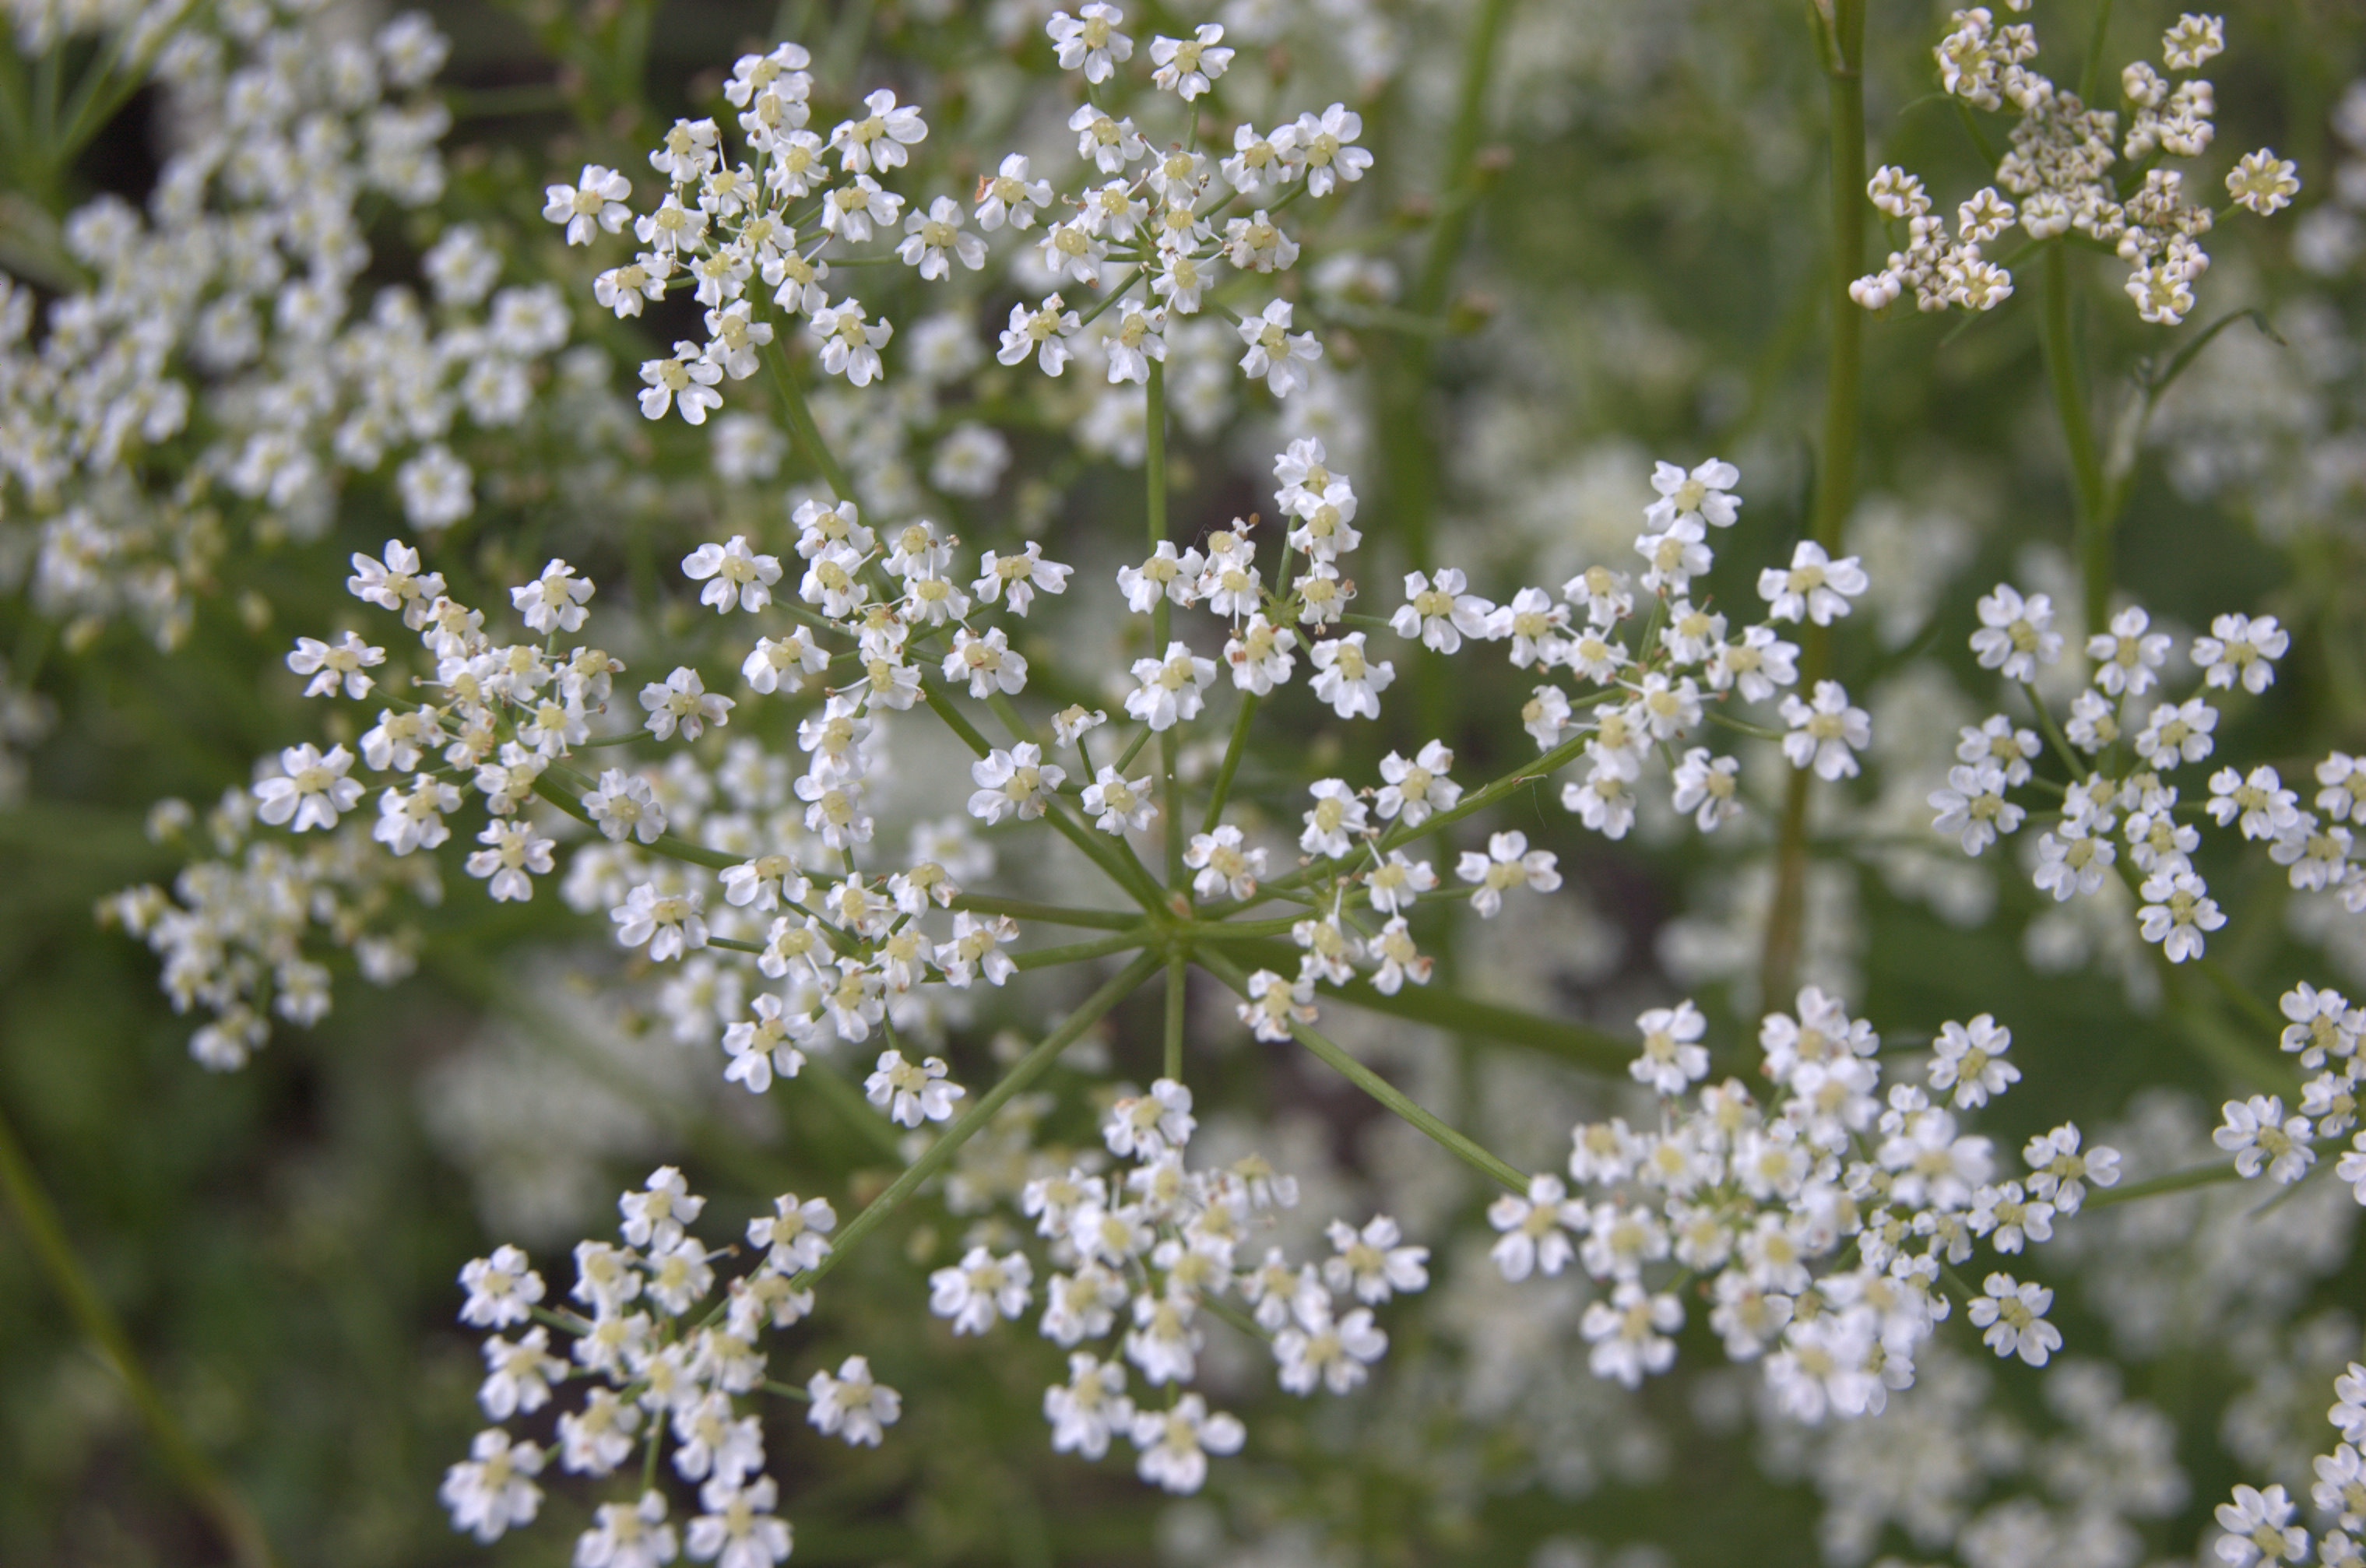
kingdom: Plantae
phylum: Tracheophyta
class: Magnoliopsida
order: Apiales
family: Apiaceae
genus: Carum
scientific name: Carum carvi
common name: Caraway
